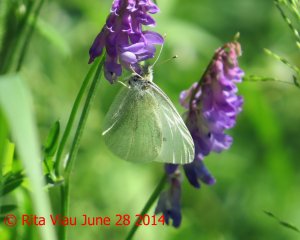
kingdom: Animalia
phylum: Arthropoda
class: Insecta
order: Lepidoptera
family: Pieridae
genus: Pieris
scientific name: Pieris rapae
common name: Cabbage White
